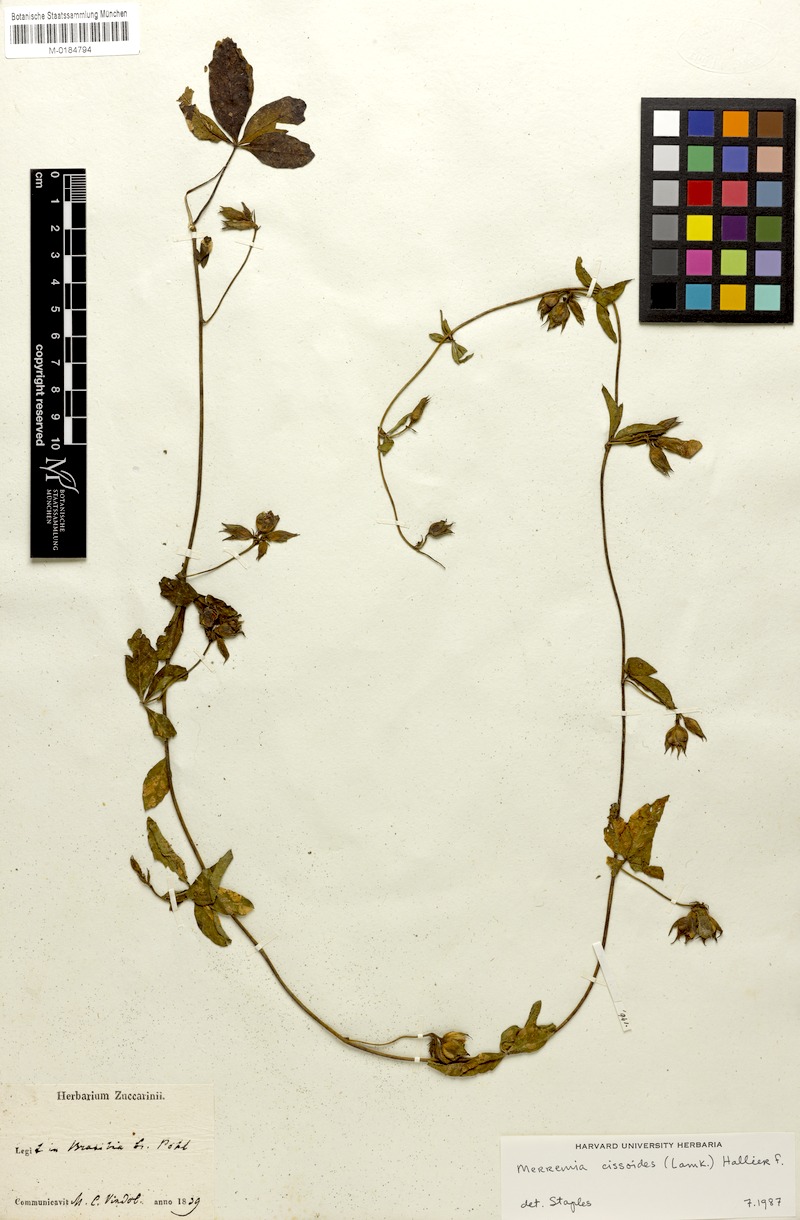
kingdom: Plantae
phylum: Tracheophyta
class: Magnoliopsida
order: Solanales
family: Convolvulaceae
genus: Distimake
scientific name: Distimake cissoides
